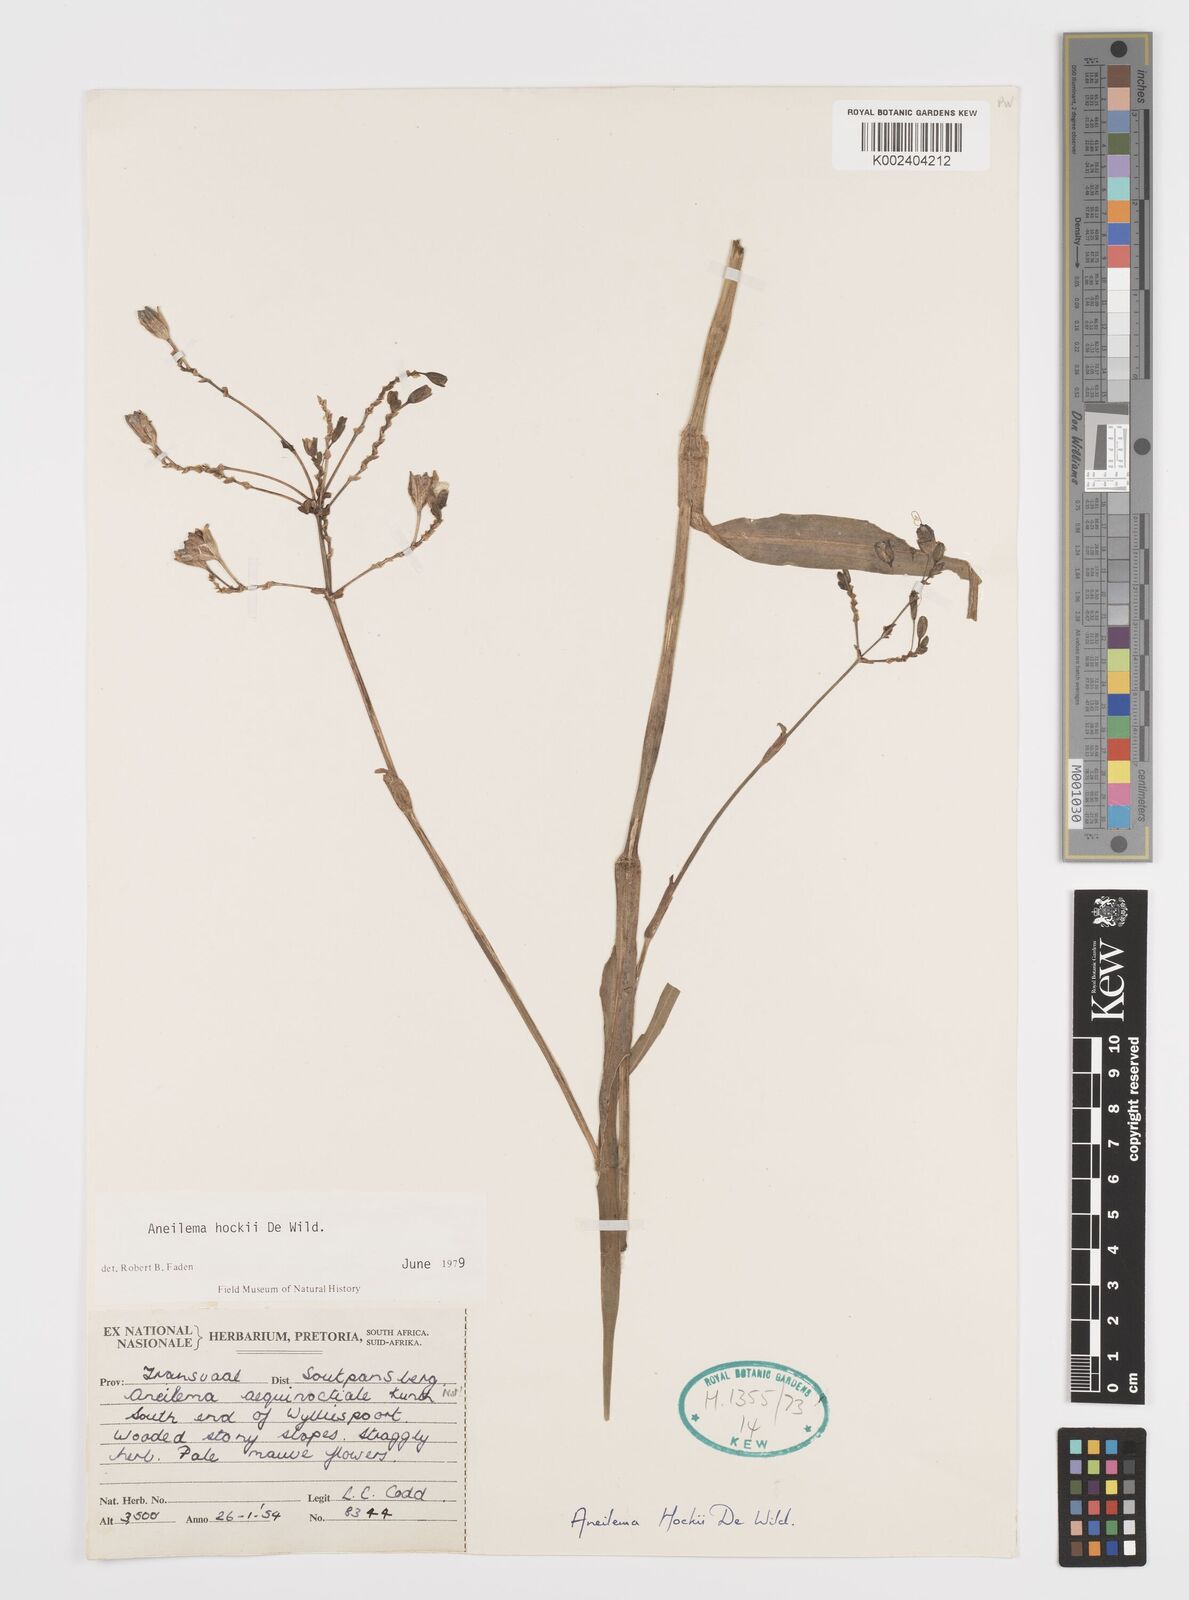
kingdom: Plantae
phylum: Tracheophyta
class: Liliopsida
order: Commelinales
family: Commelinaceae
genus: Aneilema
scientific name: Aneilema hockii
